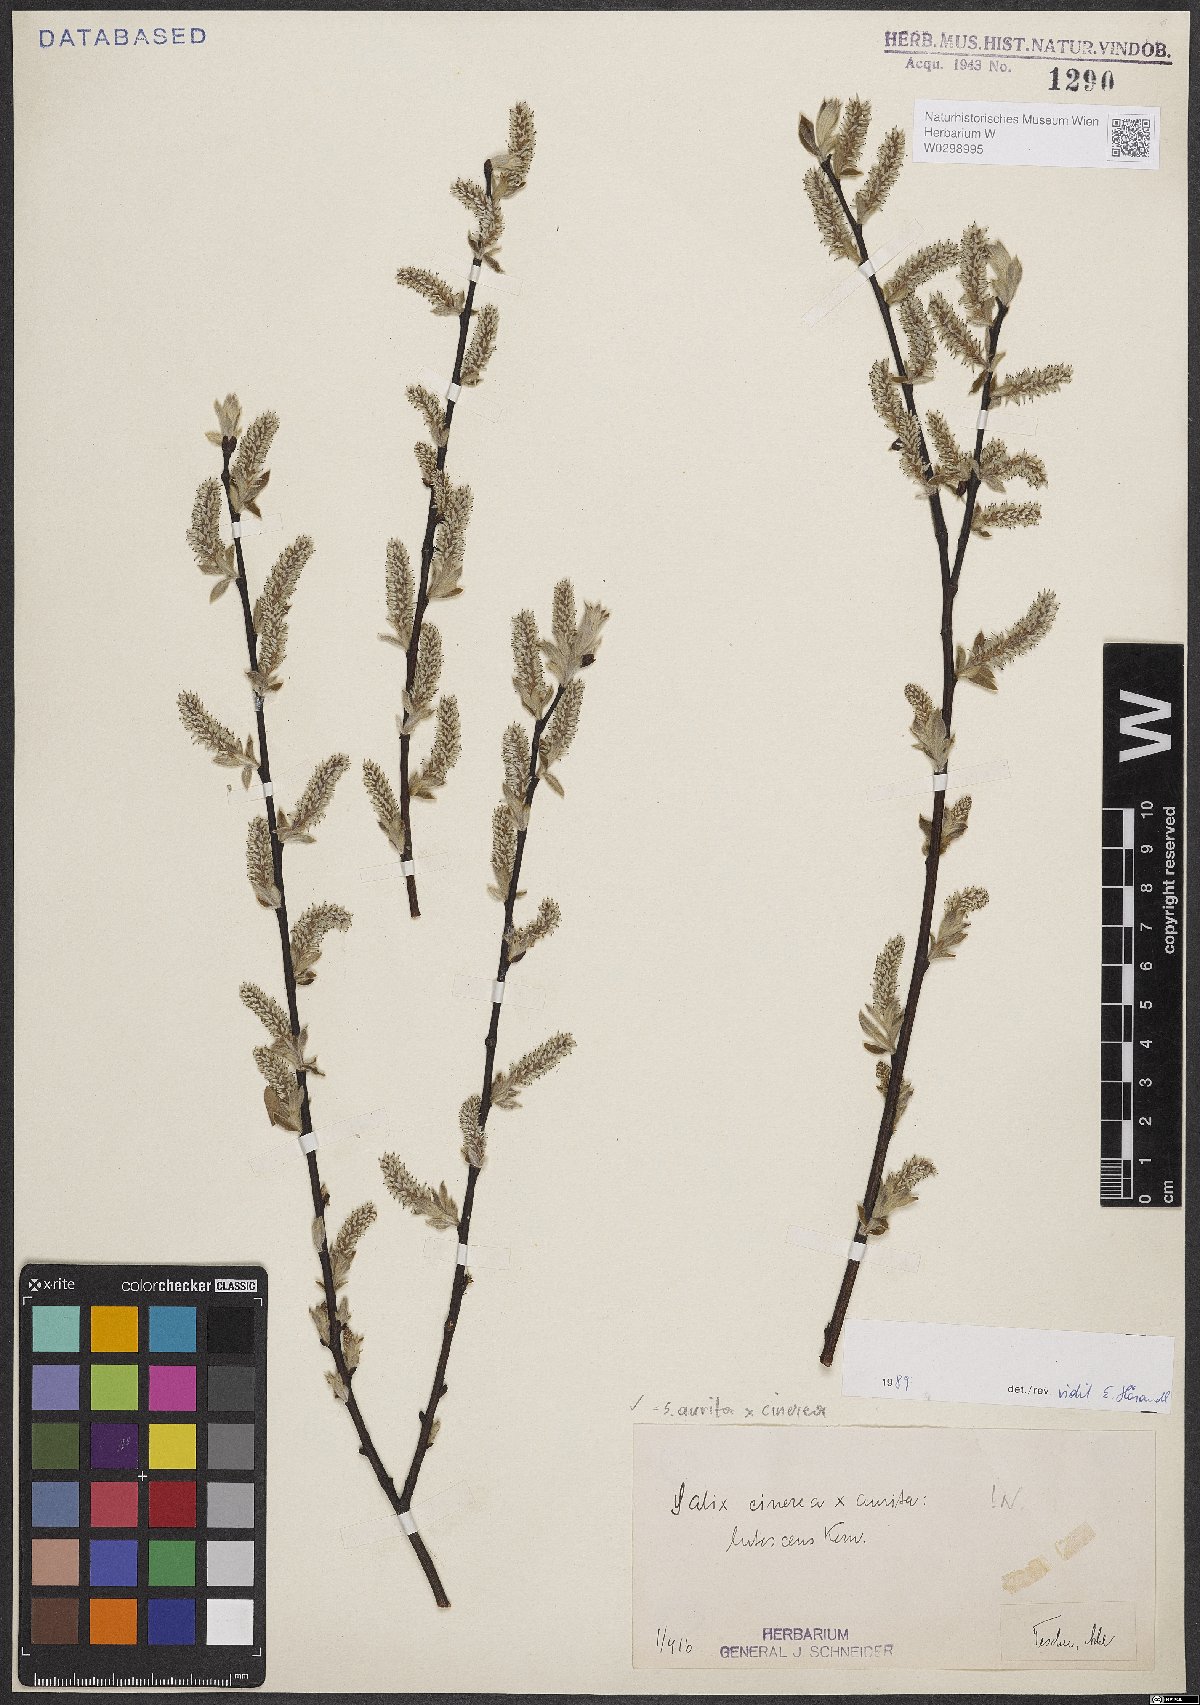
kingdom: Plantae
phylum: Tracheophyta
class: Magnoliopsida
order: Malpighiales
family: Salicaceae
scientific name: Salicaceae
